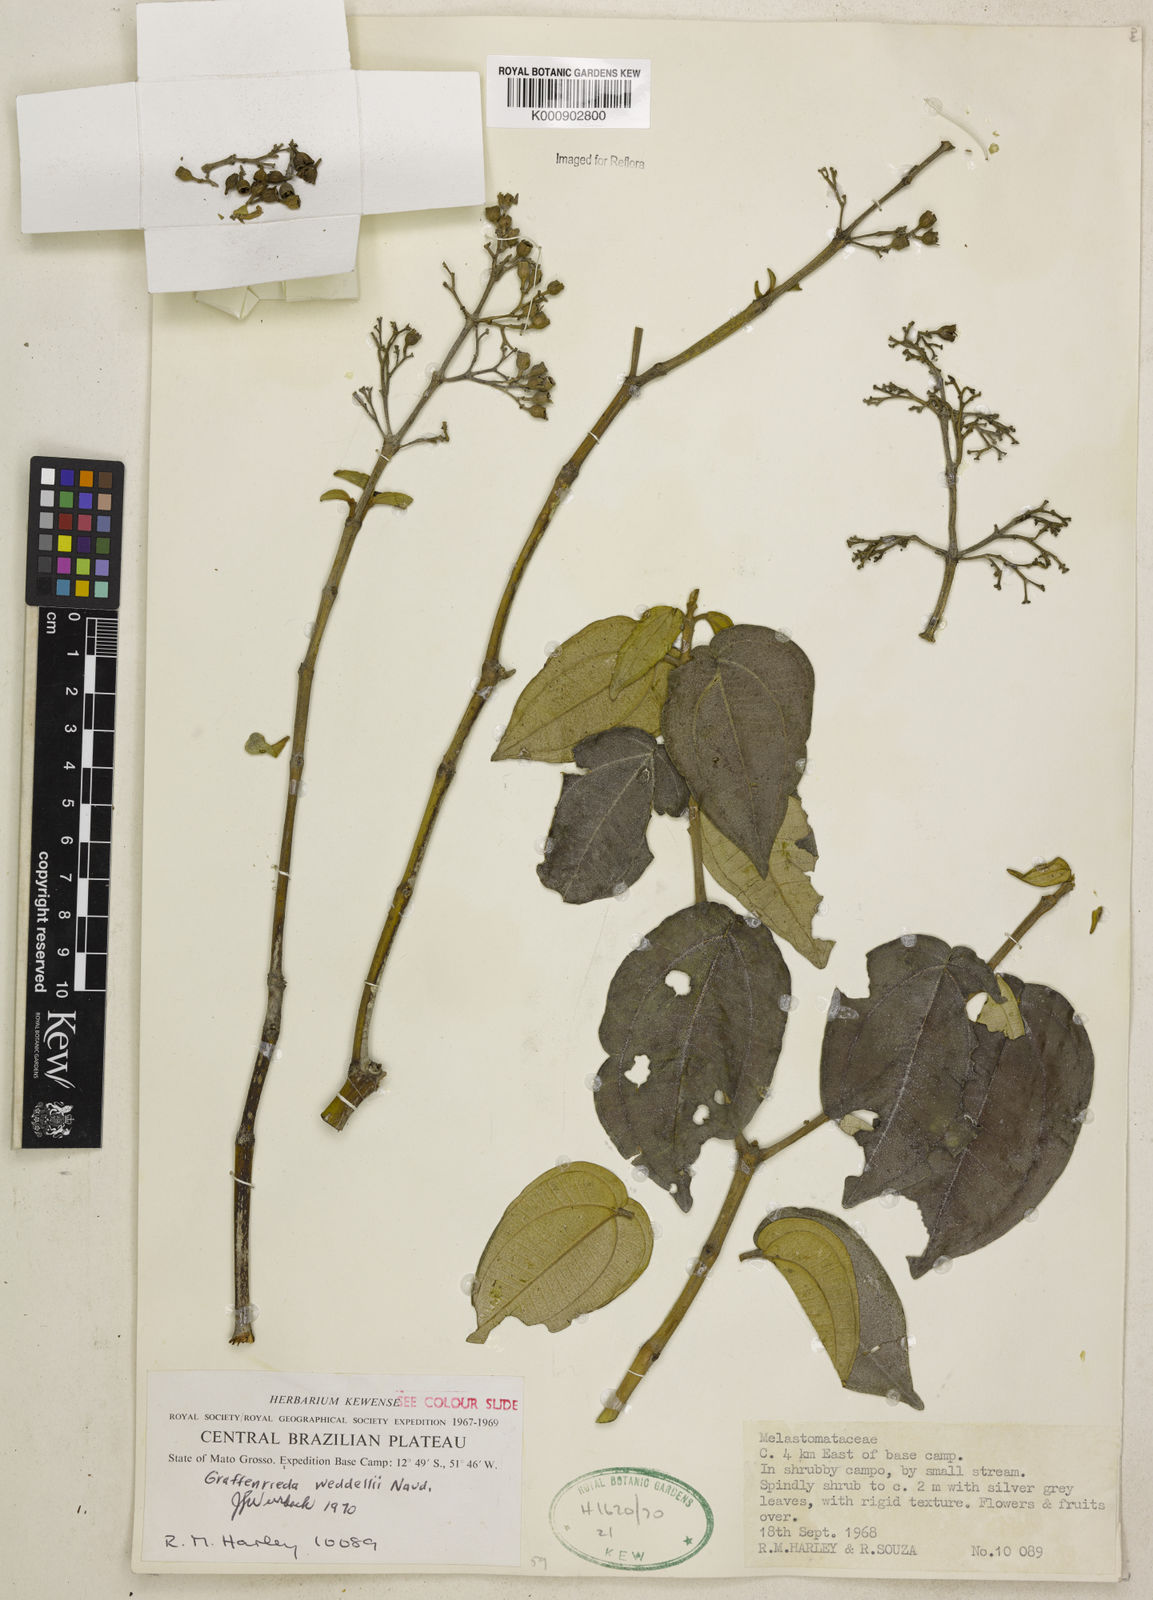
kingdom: Plantae
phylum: Tracheophyta
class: Magnoliopsida
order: Myrtales
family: Melastomataceae
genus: Graffenrieda
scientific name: Graffenrieda weddellii
